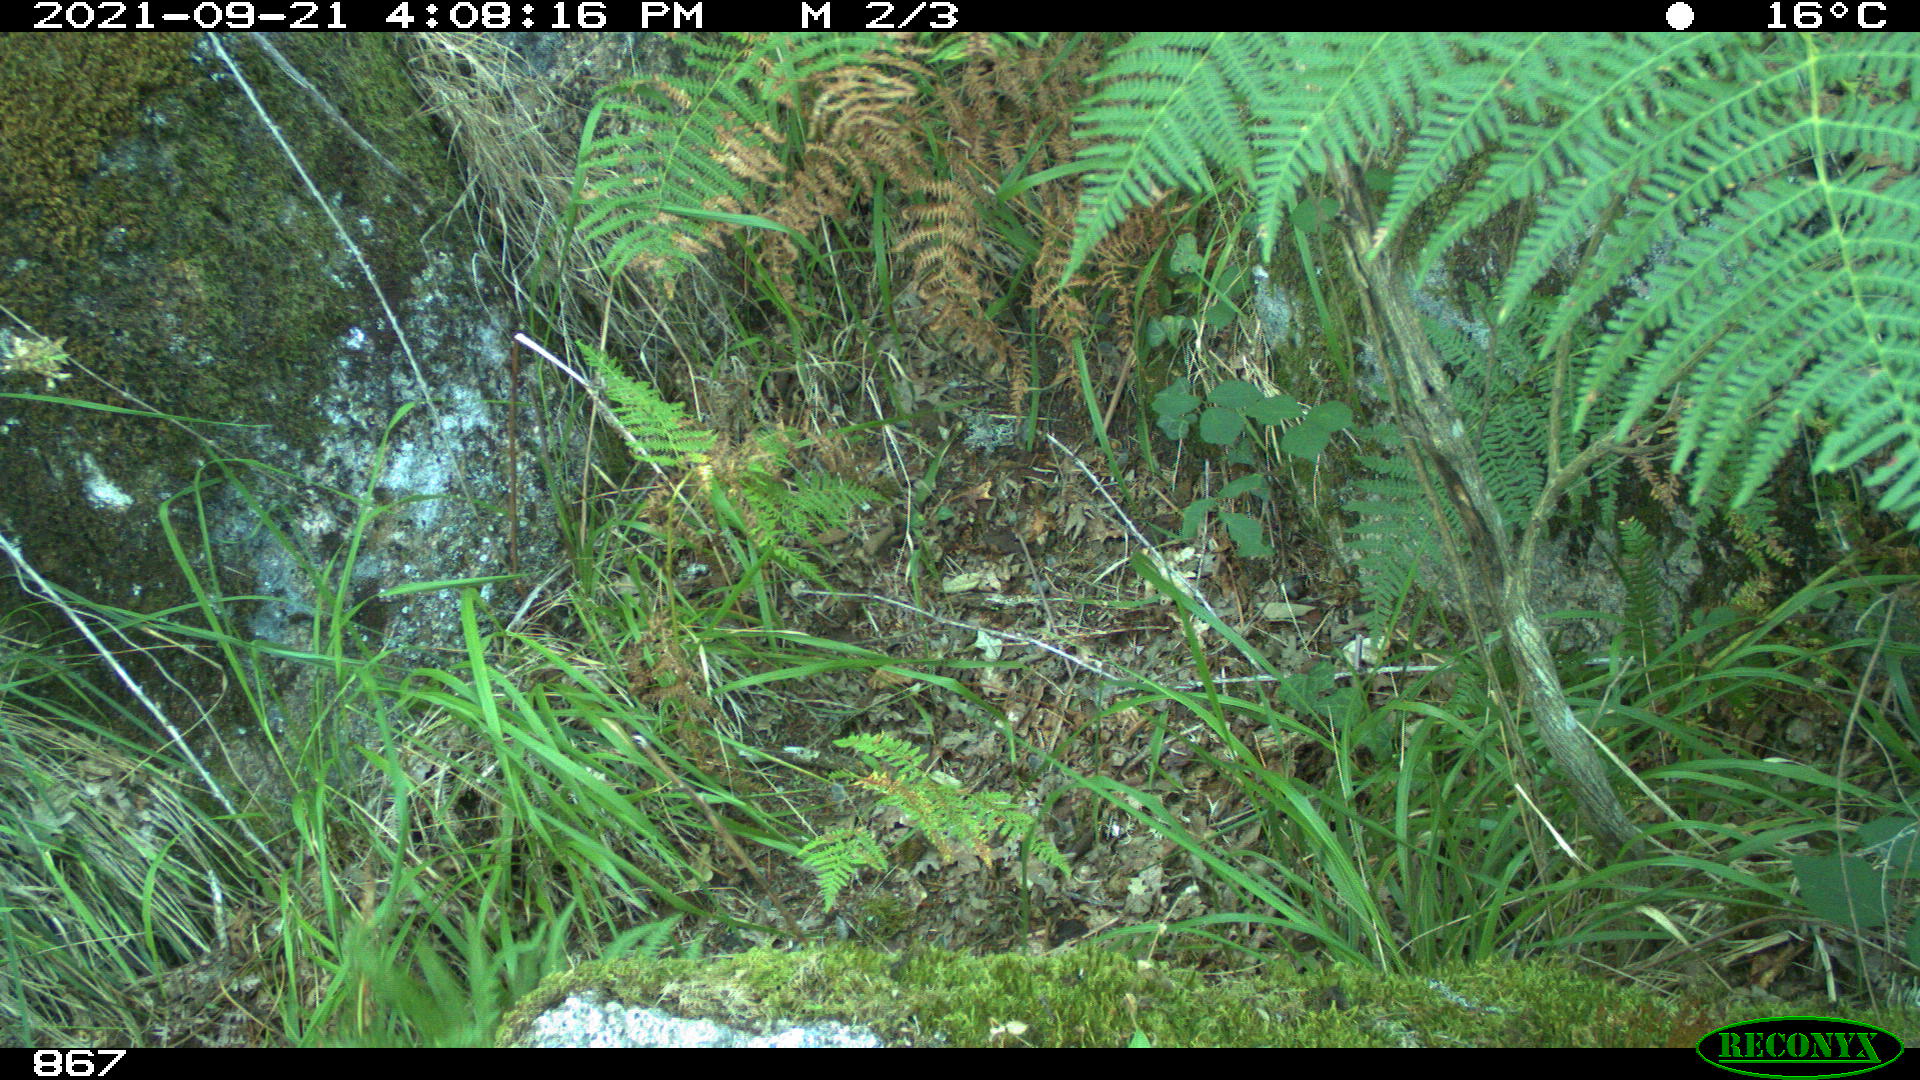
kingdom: Animalia
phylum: Chordata
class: Mammalia
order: Artiodactyla
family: Cervidae
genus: Capreolus
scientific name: Capreolus capreolus
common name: Western roe deer
